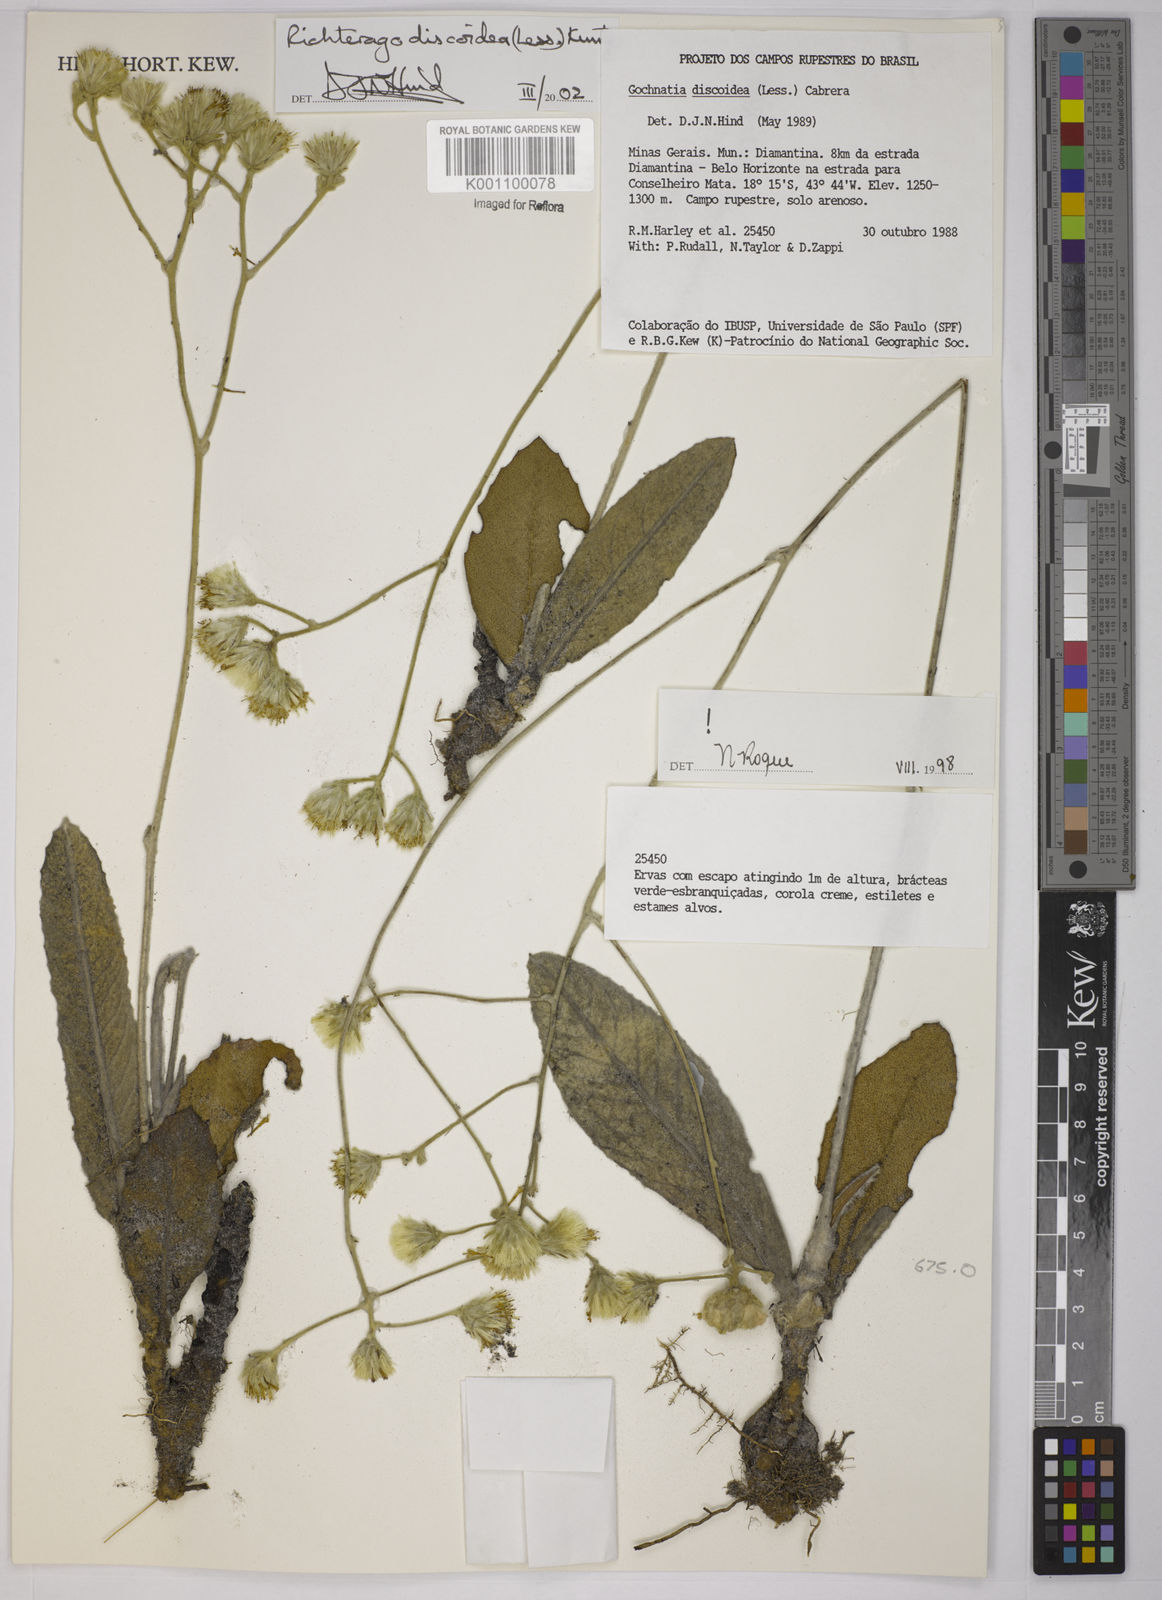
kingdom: Plantae
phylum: Tracheophyta
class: Magnoliopsida
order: Asterales
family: Asteraceae
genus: Richterago
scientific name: Richterago discoidea
